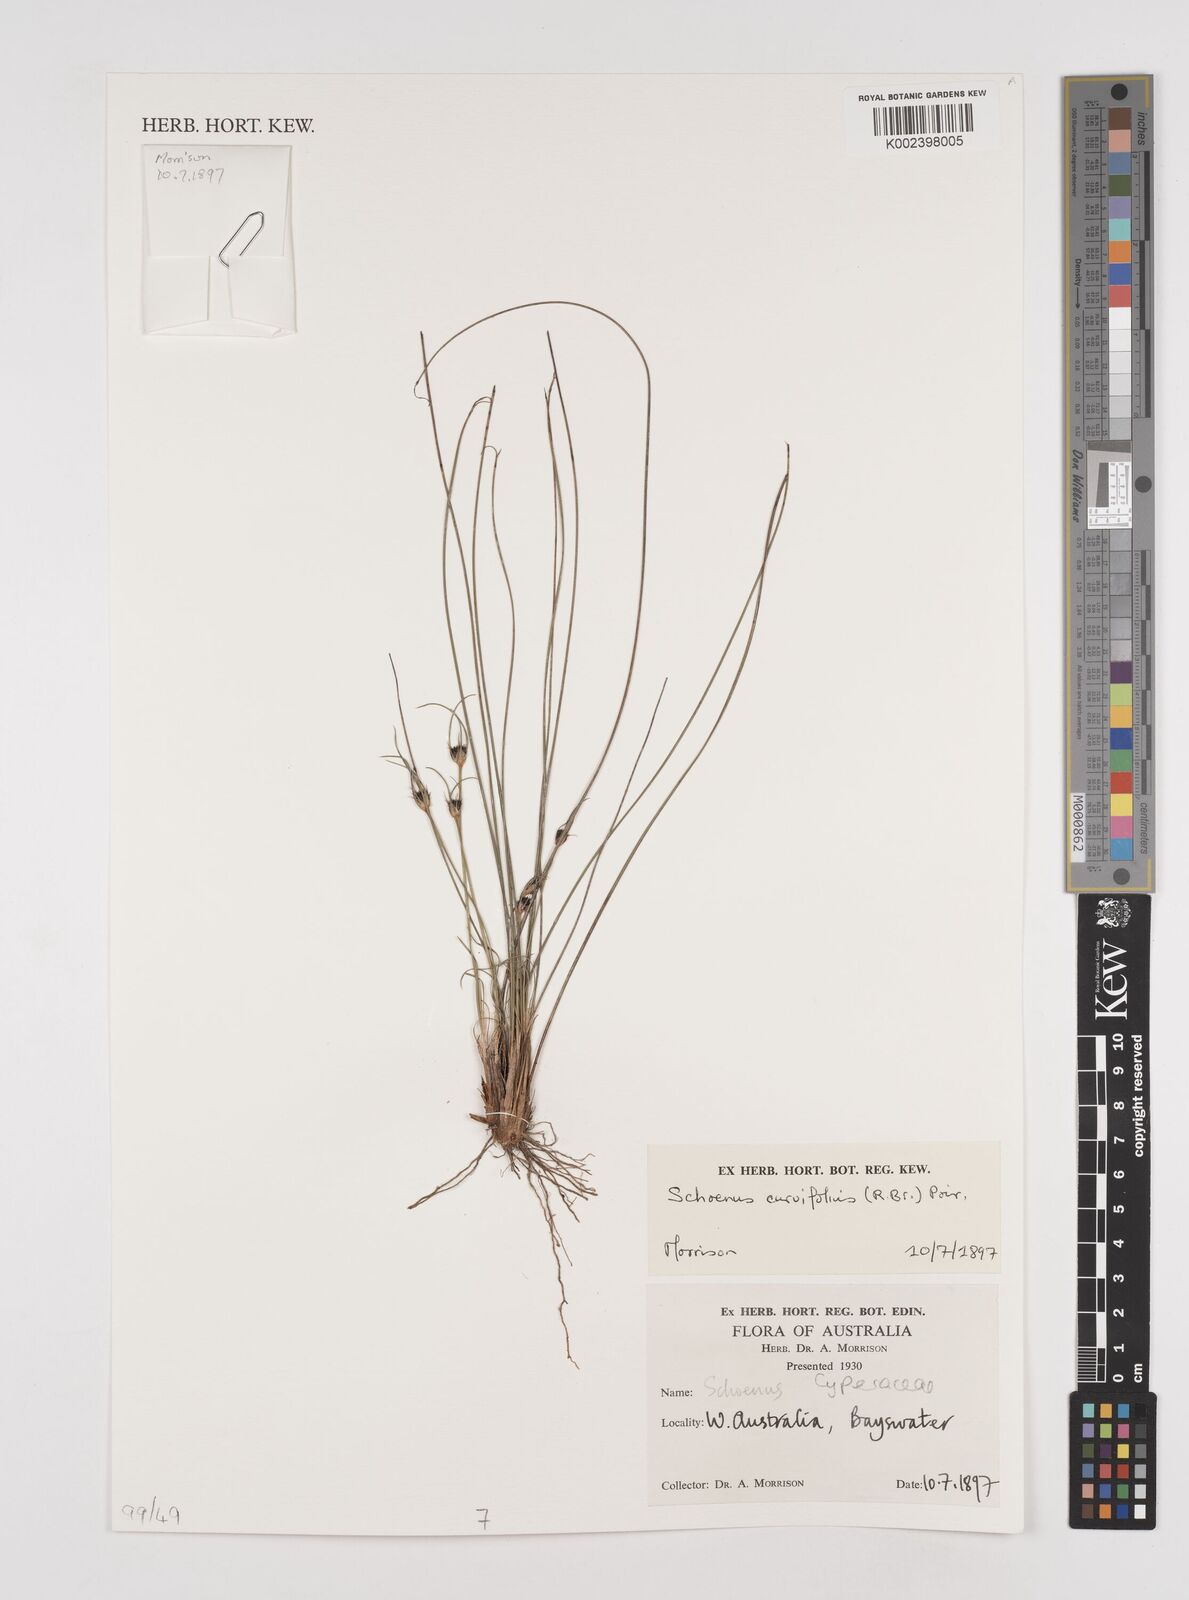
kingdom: Plantae
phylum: Tracheophyta
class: Liliopsida
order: Poales
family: Cyperaceae
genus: Schoenus
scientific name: Schoenus curvifolius
